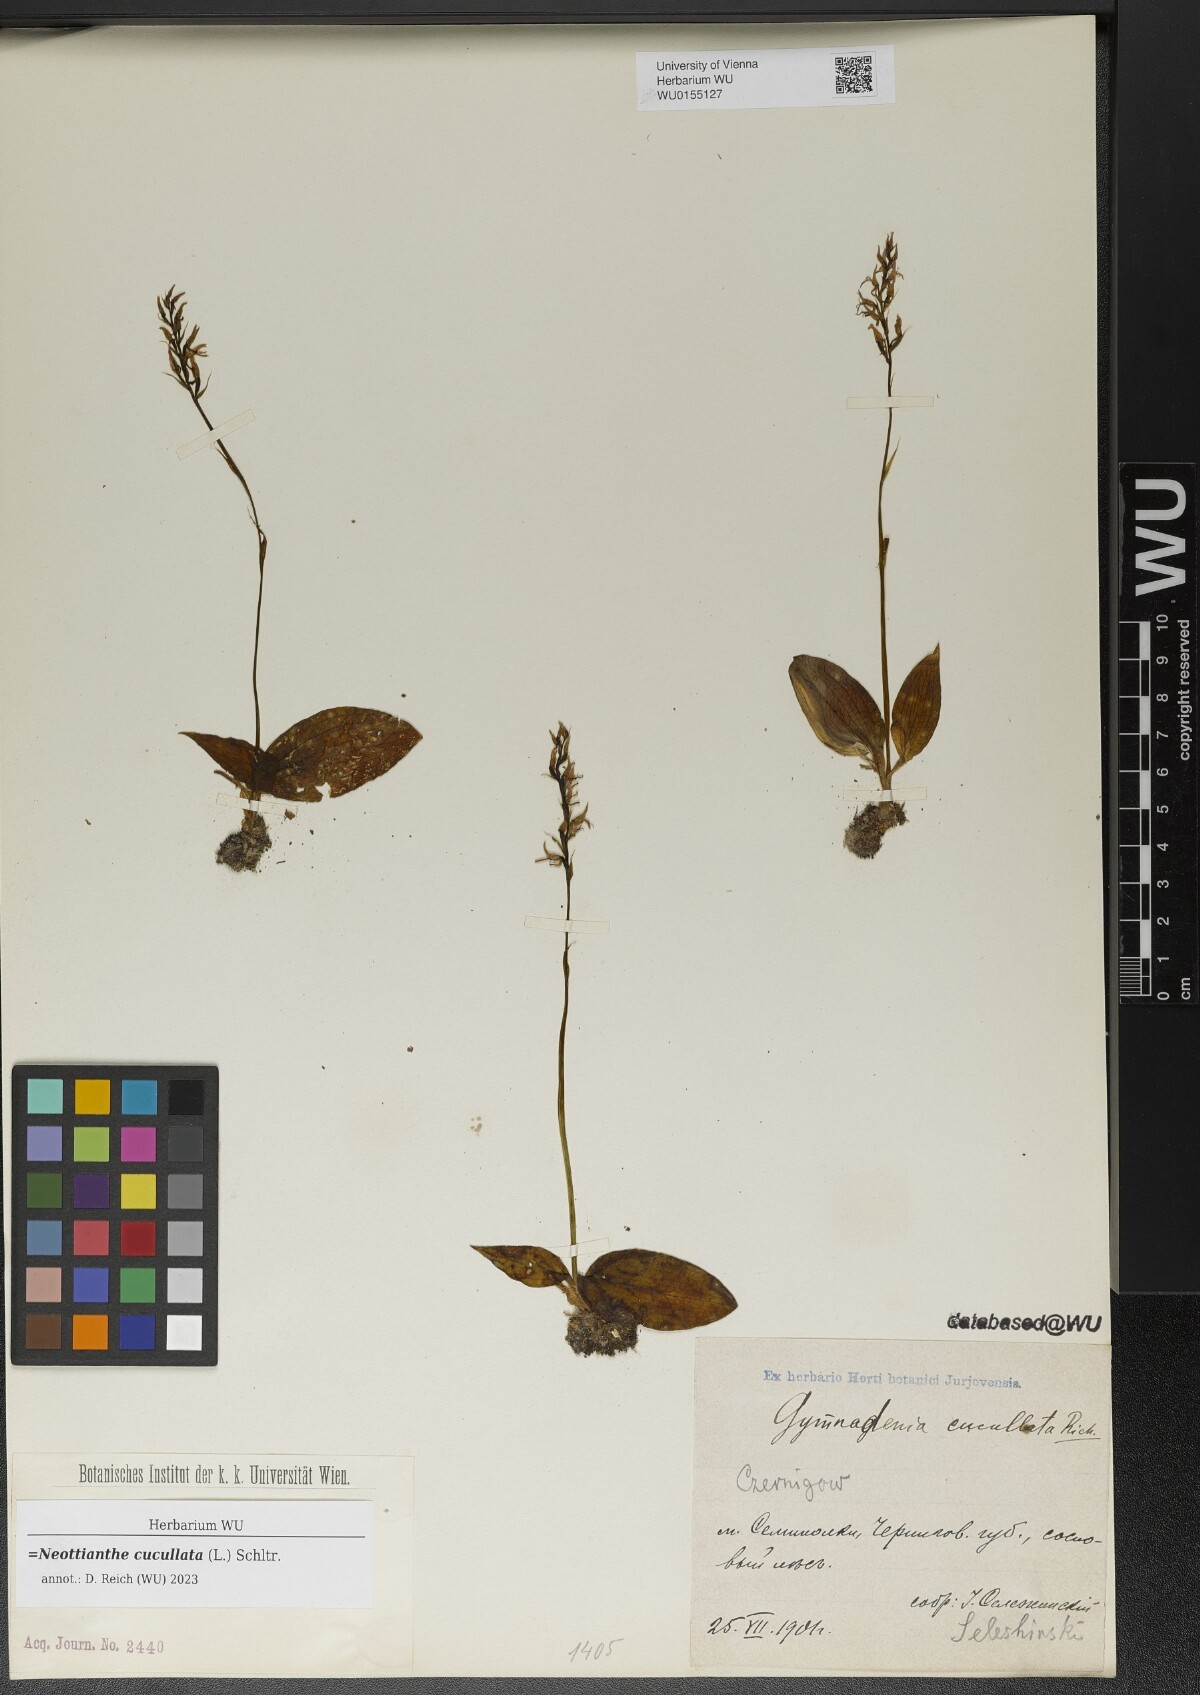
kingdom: Plantae
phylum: Tracheophyta
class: Liliopsida
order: Asparagales
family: Orchidaceae
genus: Hemipilia
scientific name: Hemipilia cucullata
